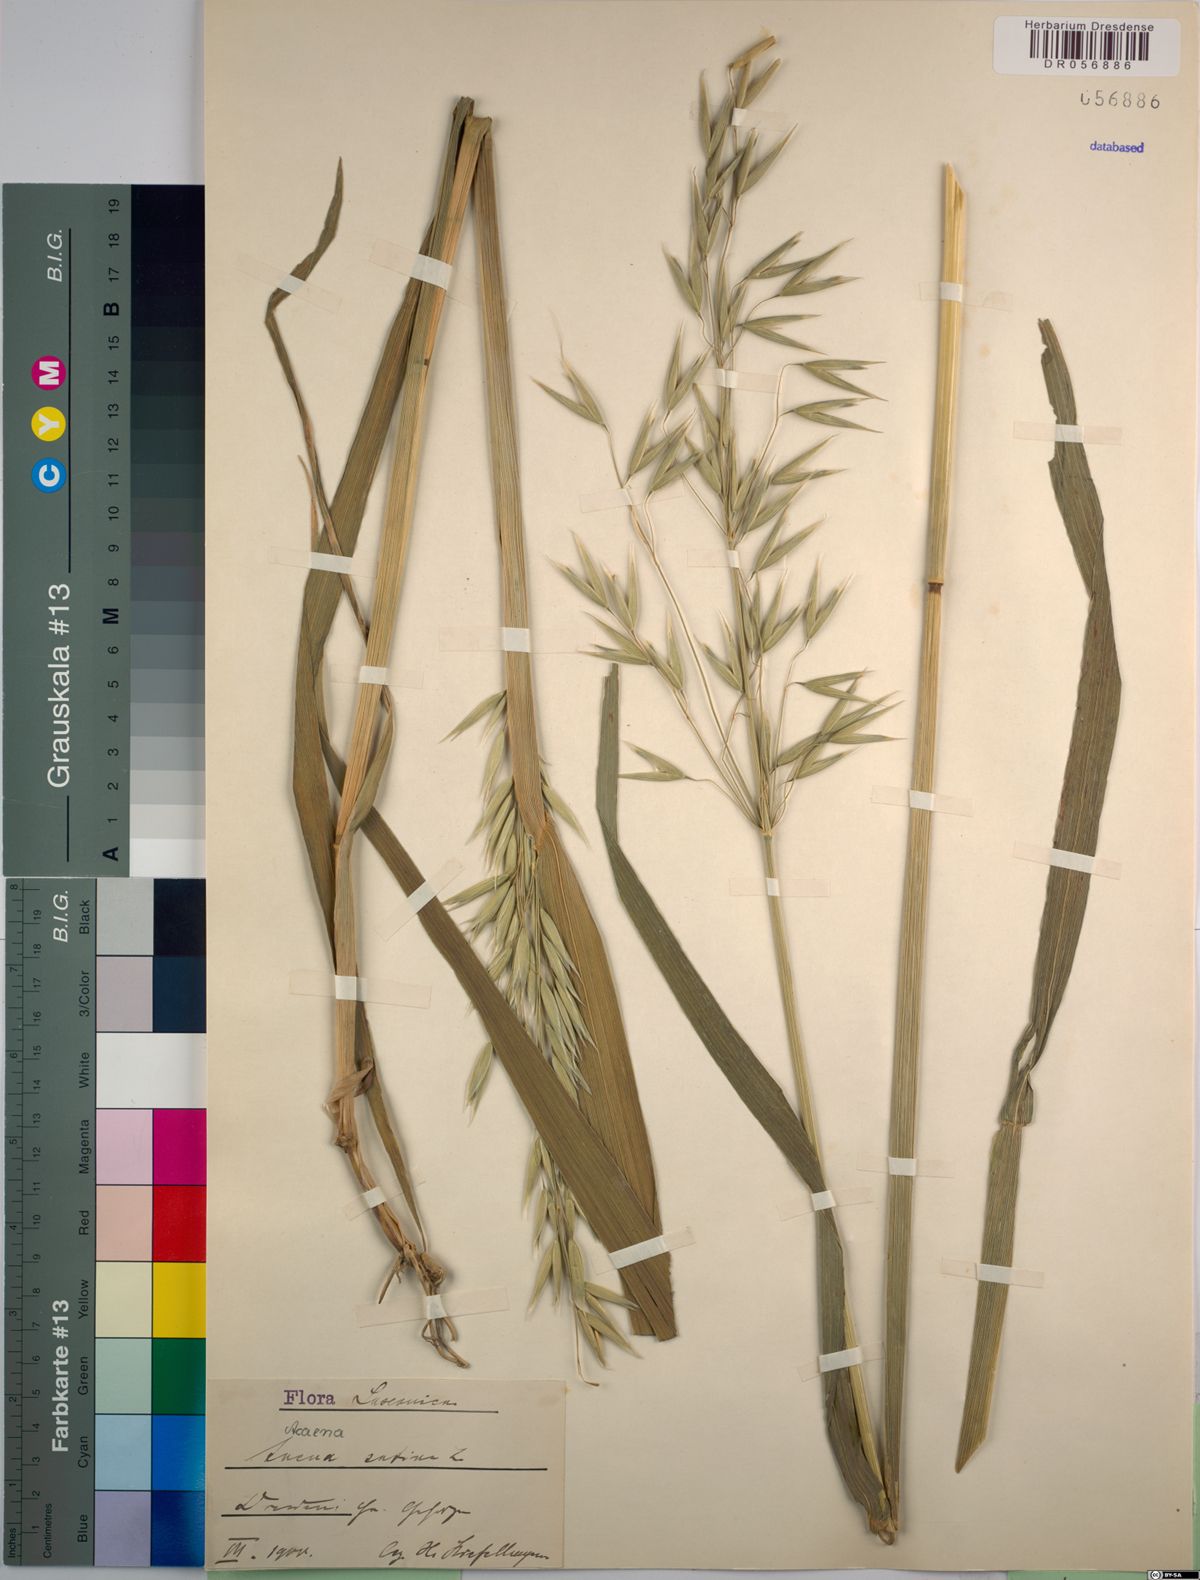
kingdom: Plantae
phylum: Tracheophyta
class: Liliopsida
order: Poales
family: Poaceae
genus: Avena
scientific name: Avena sativa
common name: Oat
